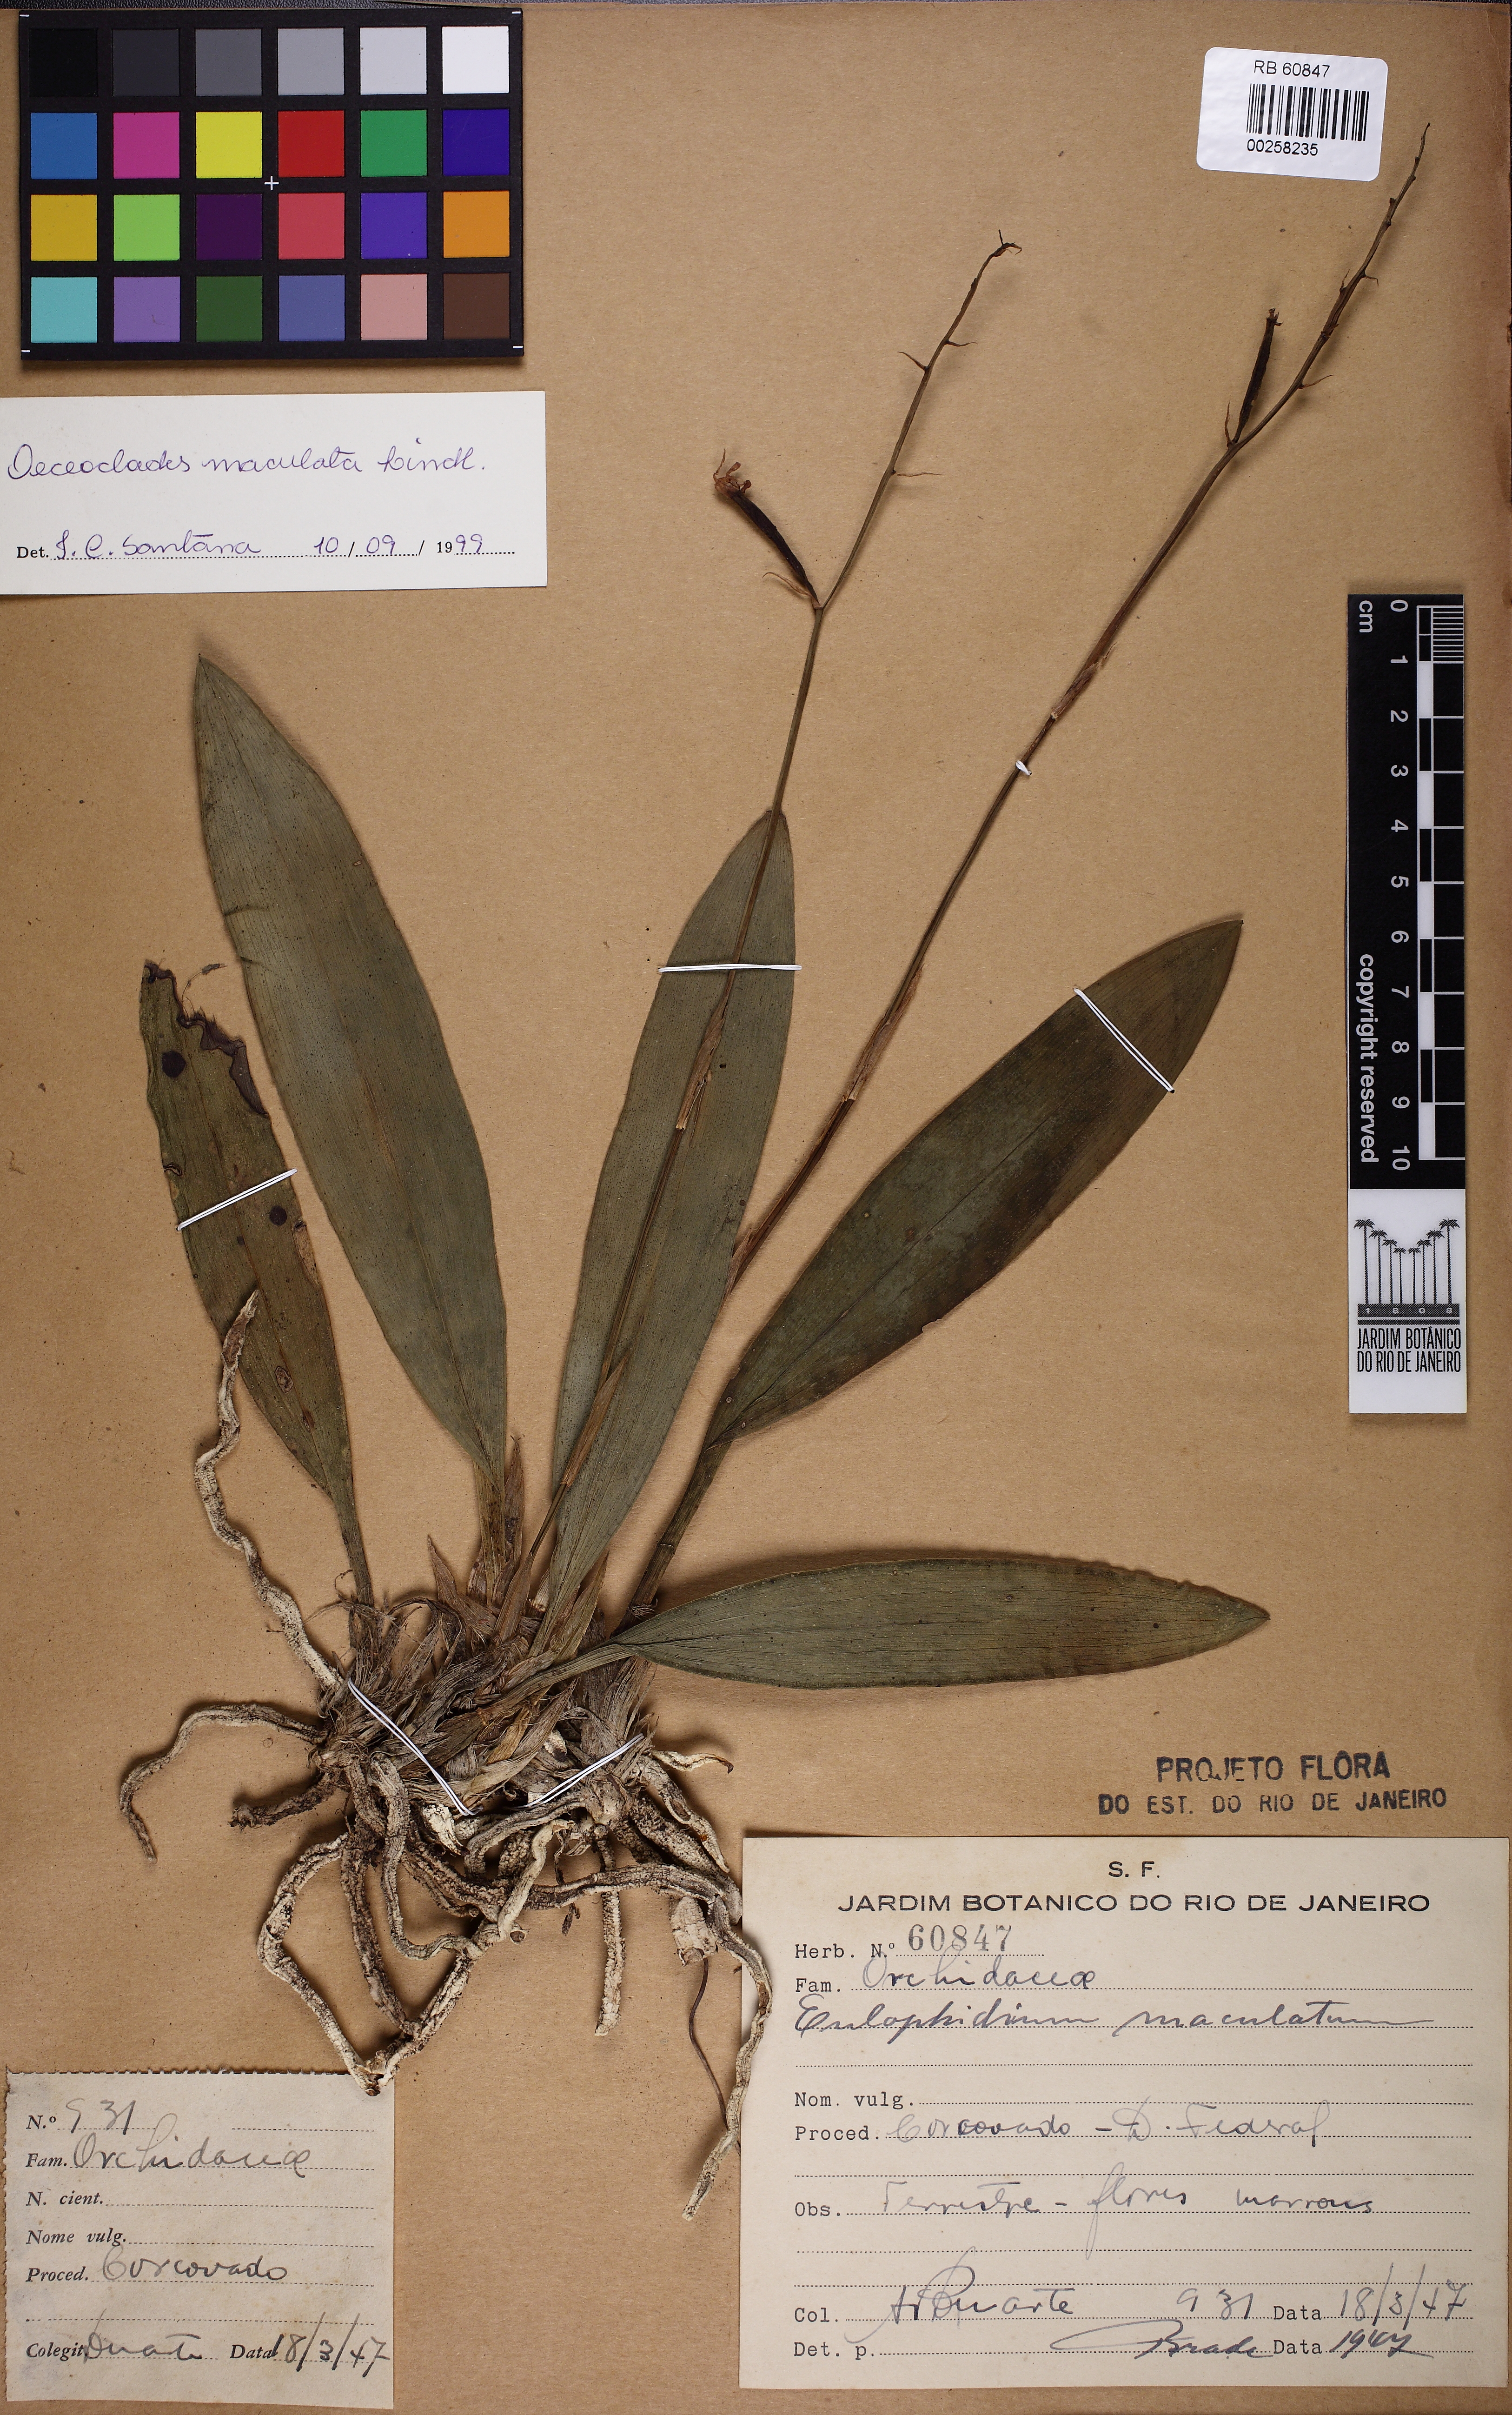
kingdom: Plantae
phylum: Tracheophyta
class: Liliopsida
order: Asparagales
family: Orchidaceae
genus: Eulophia
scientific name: Eulophia maculata
